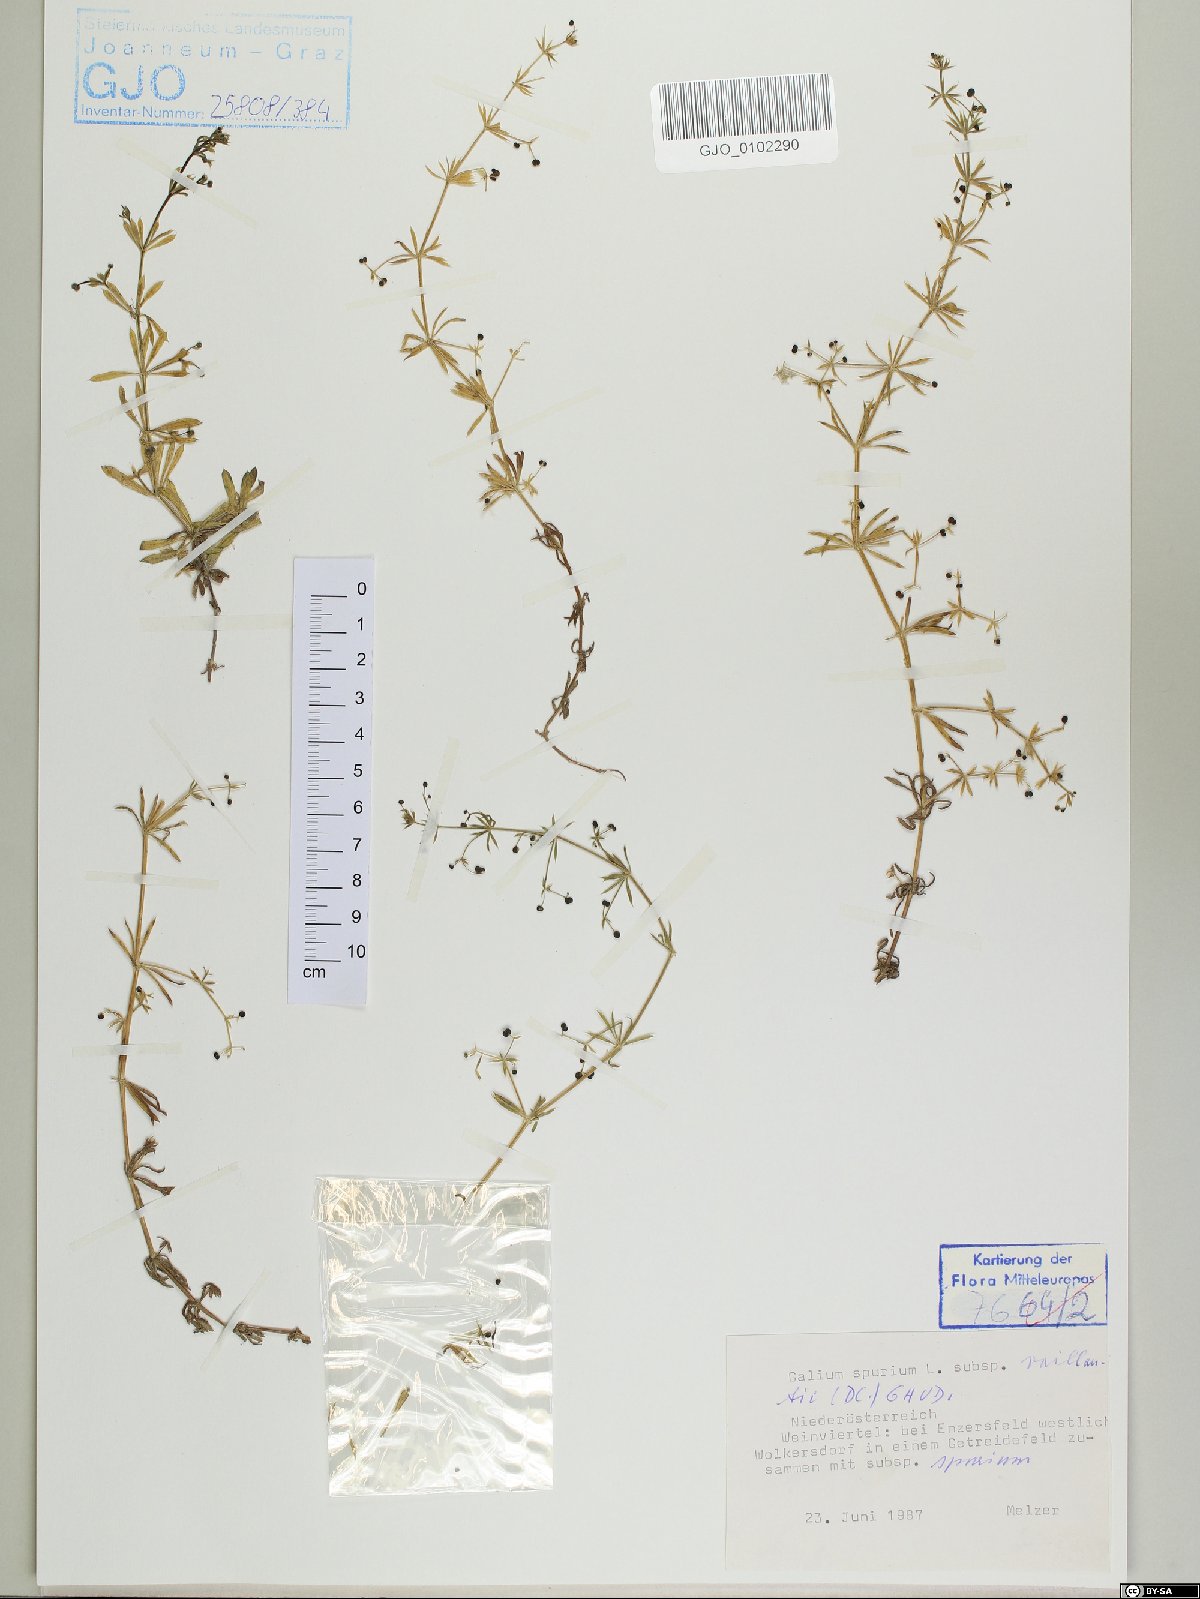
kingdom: Plantae
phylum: Tracheophyta
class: Magnoliopsida
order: Gentianales
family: Rubiaceae
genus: Galium
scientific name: Galium spurium
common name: False cleavers
